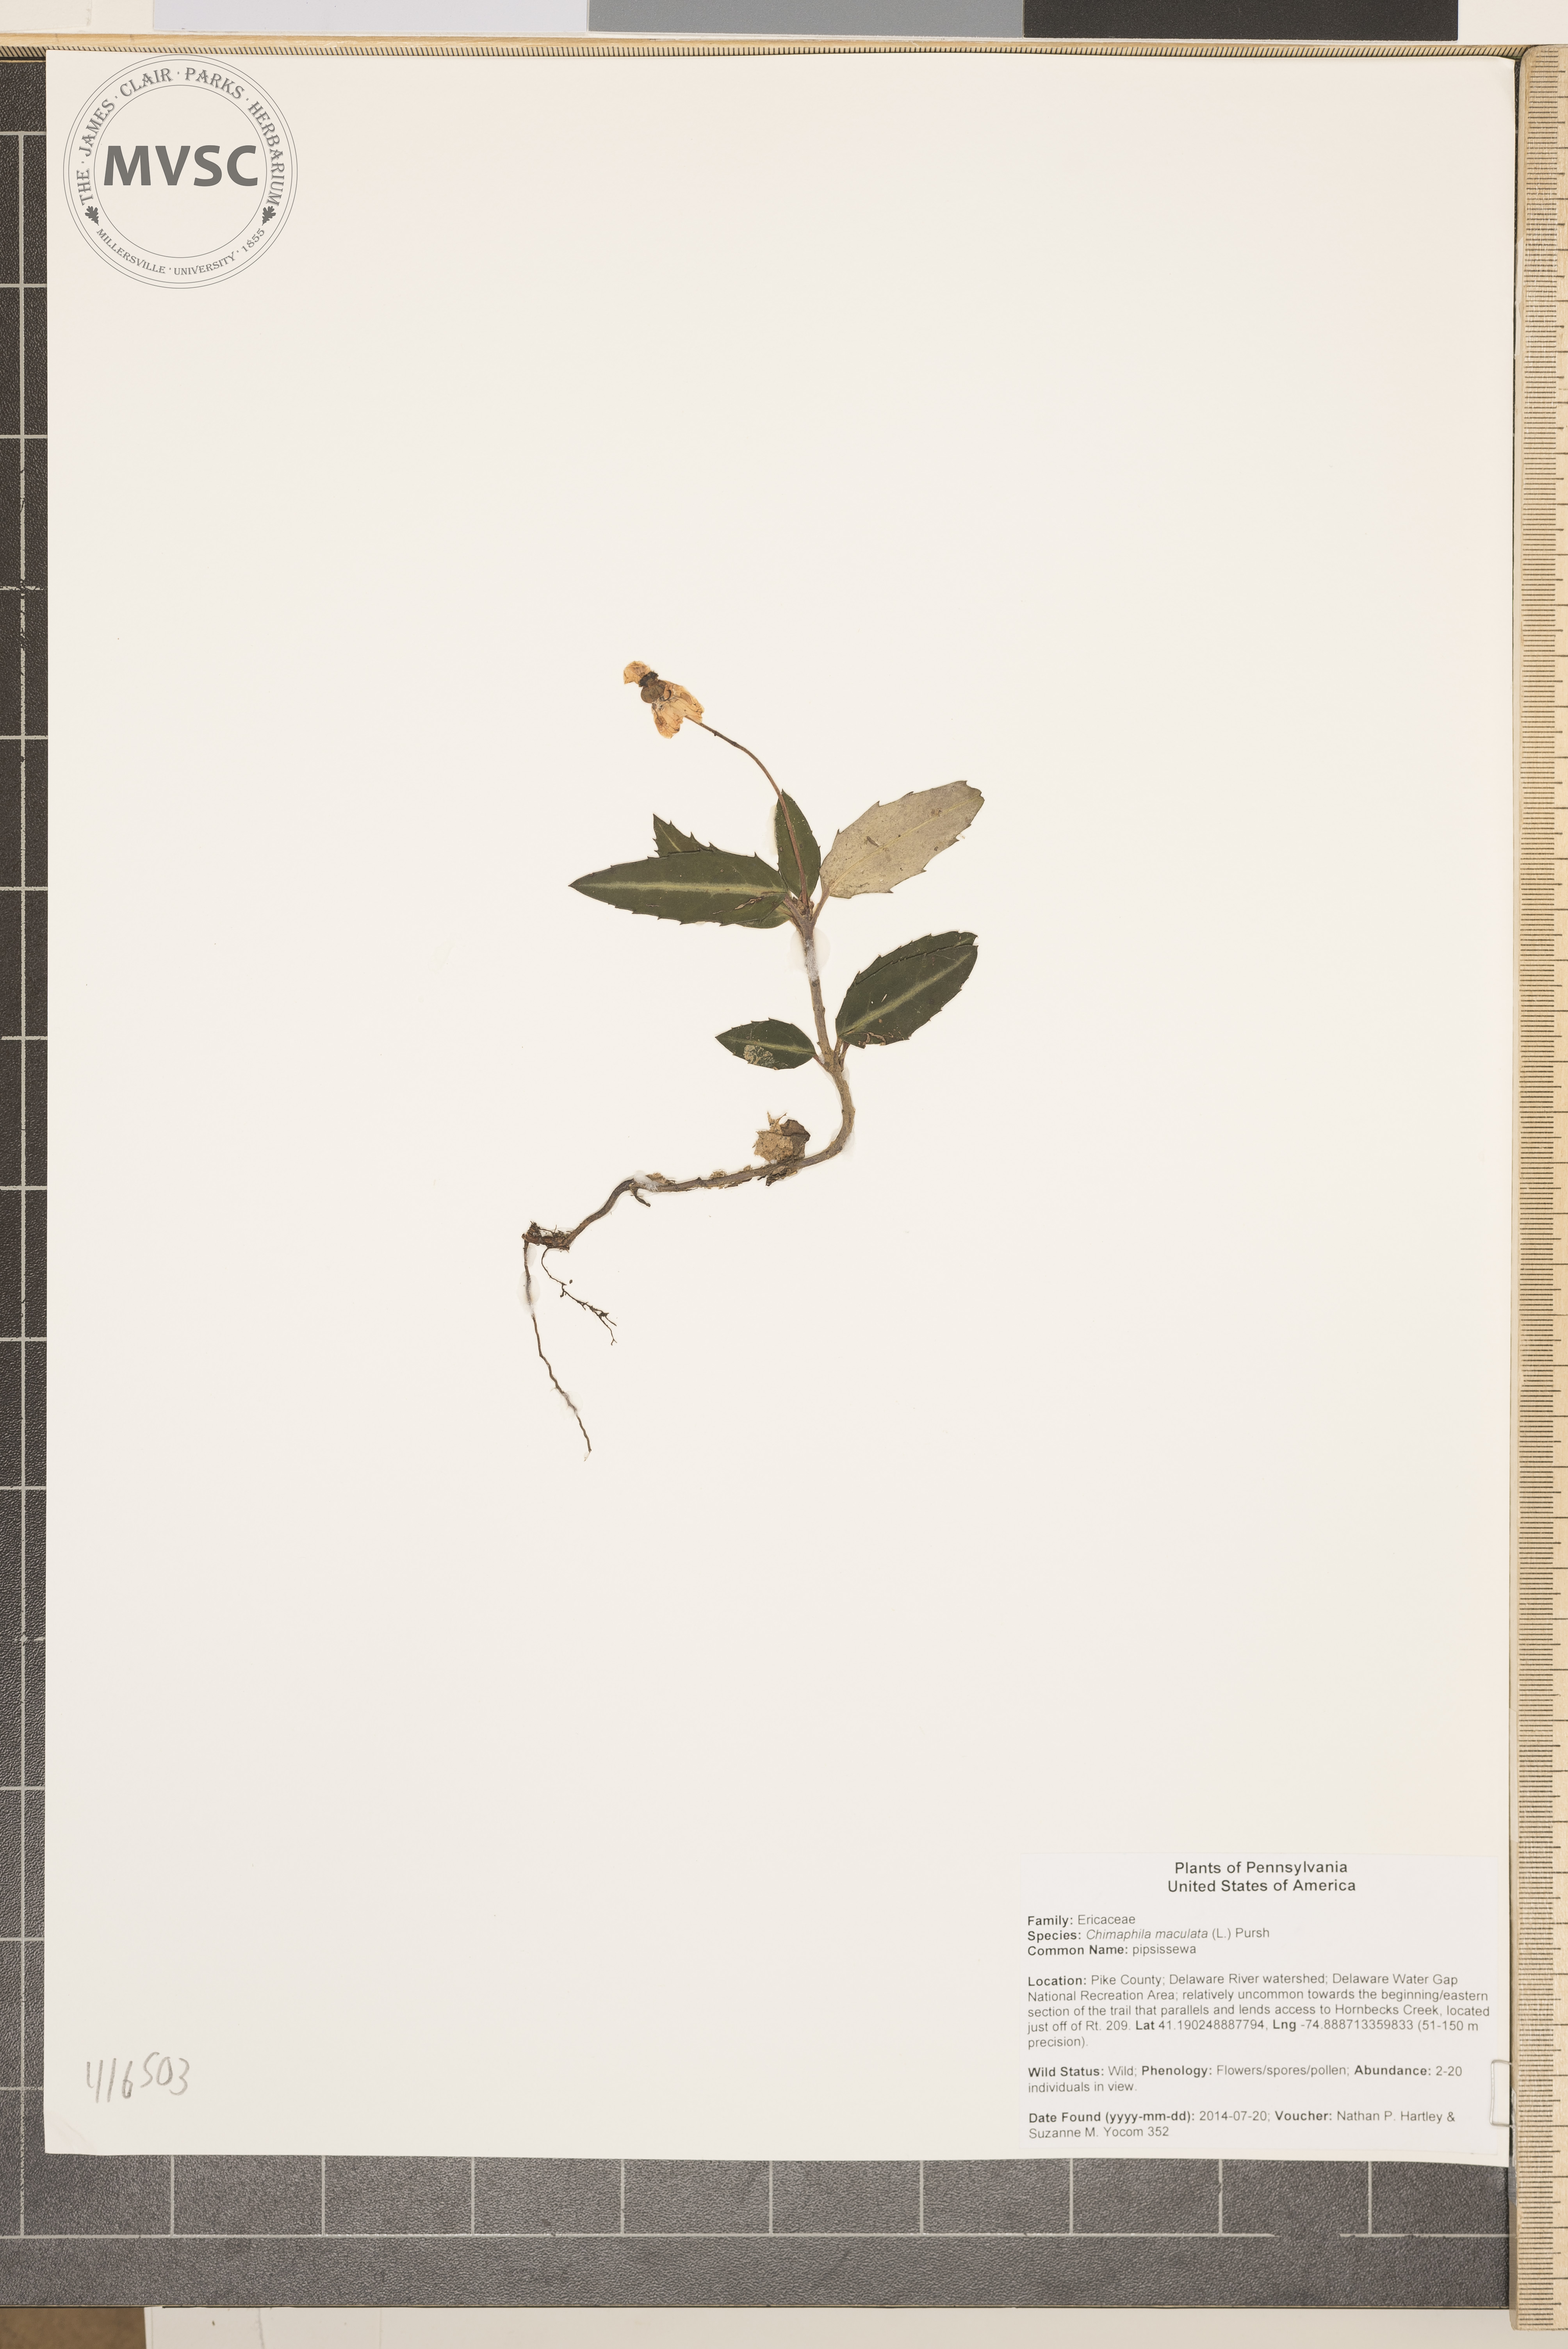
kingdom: Plantae
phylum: Tracheophyta
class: Magnoliopsida
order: Ericales
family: Ericaceae
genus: Chimaphila
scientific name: Chimaphila maculata
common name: pipsissewa
